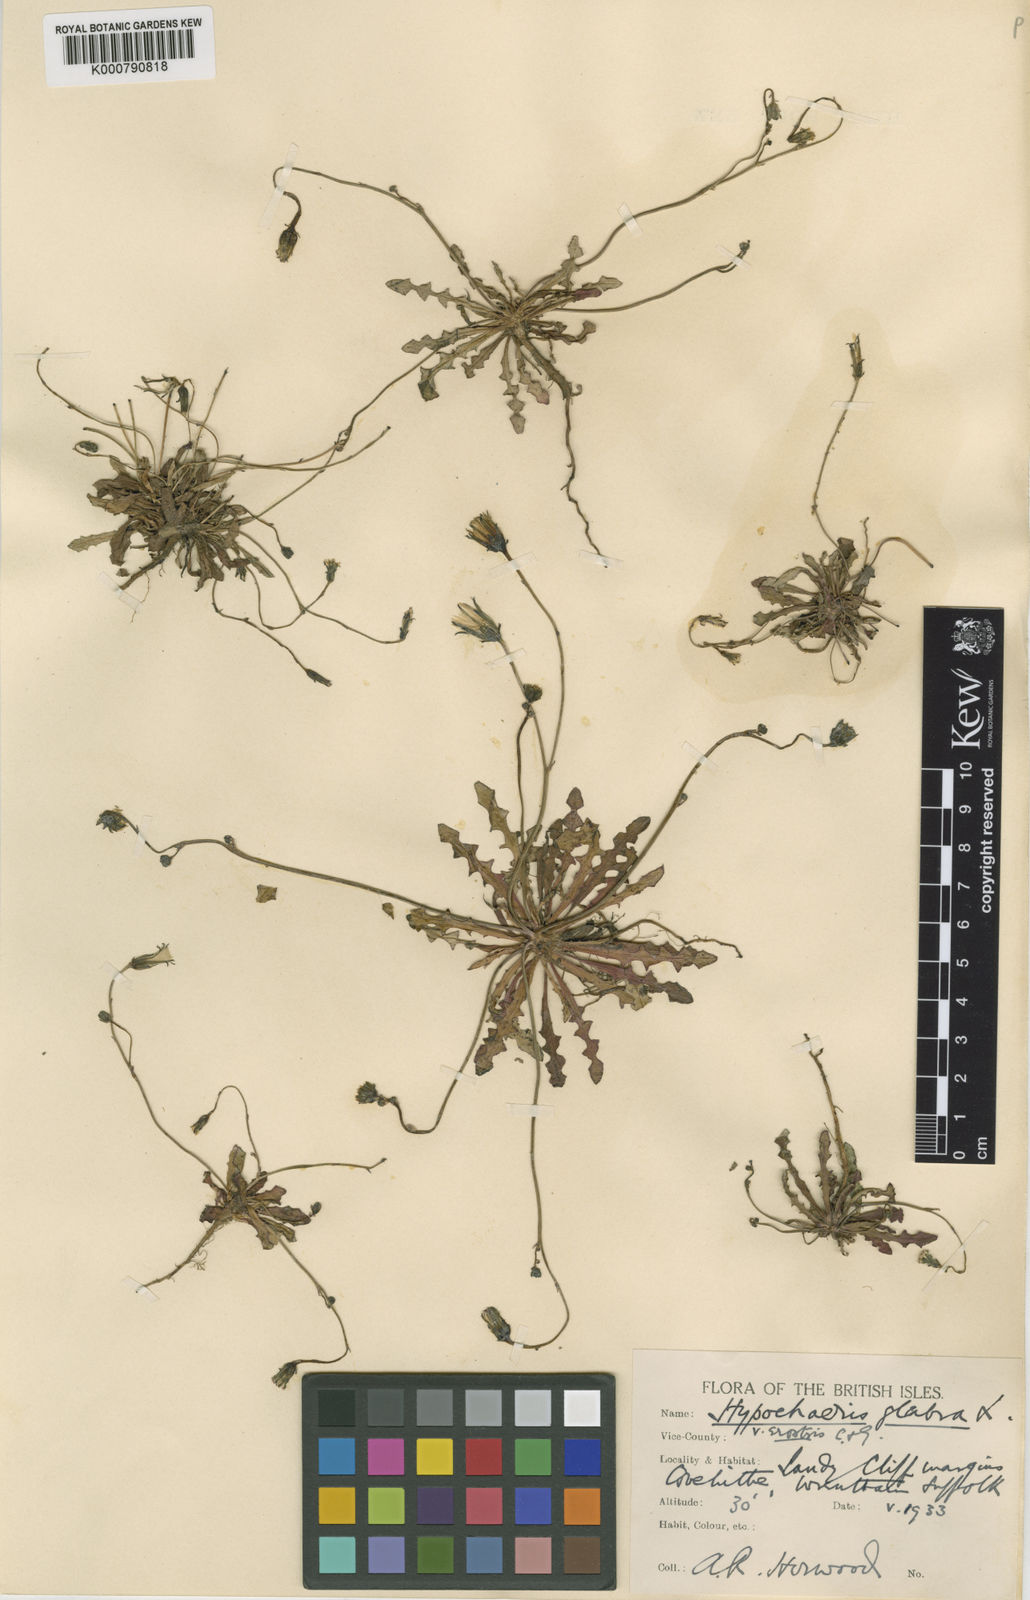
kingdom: Plantae
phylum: Tracheophyta
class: Magnoliopsida
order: Asterales
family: Asteraceae
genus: Hypochaeris
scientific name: Hypochaeris glabra
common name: Smooth catsear
